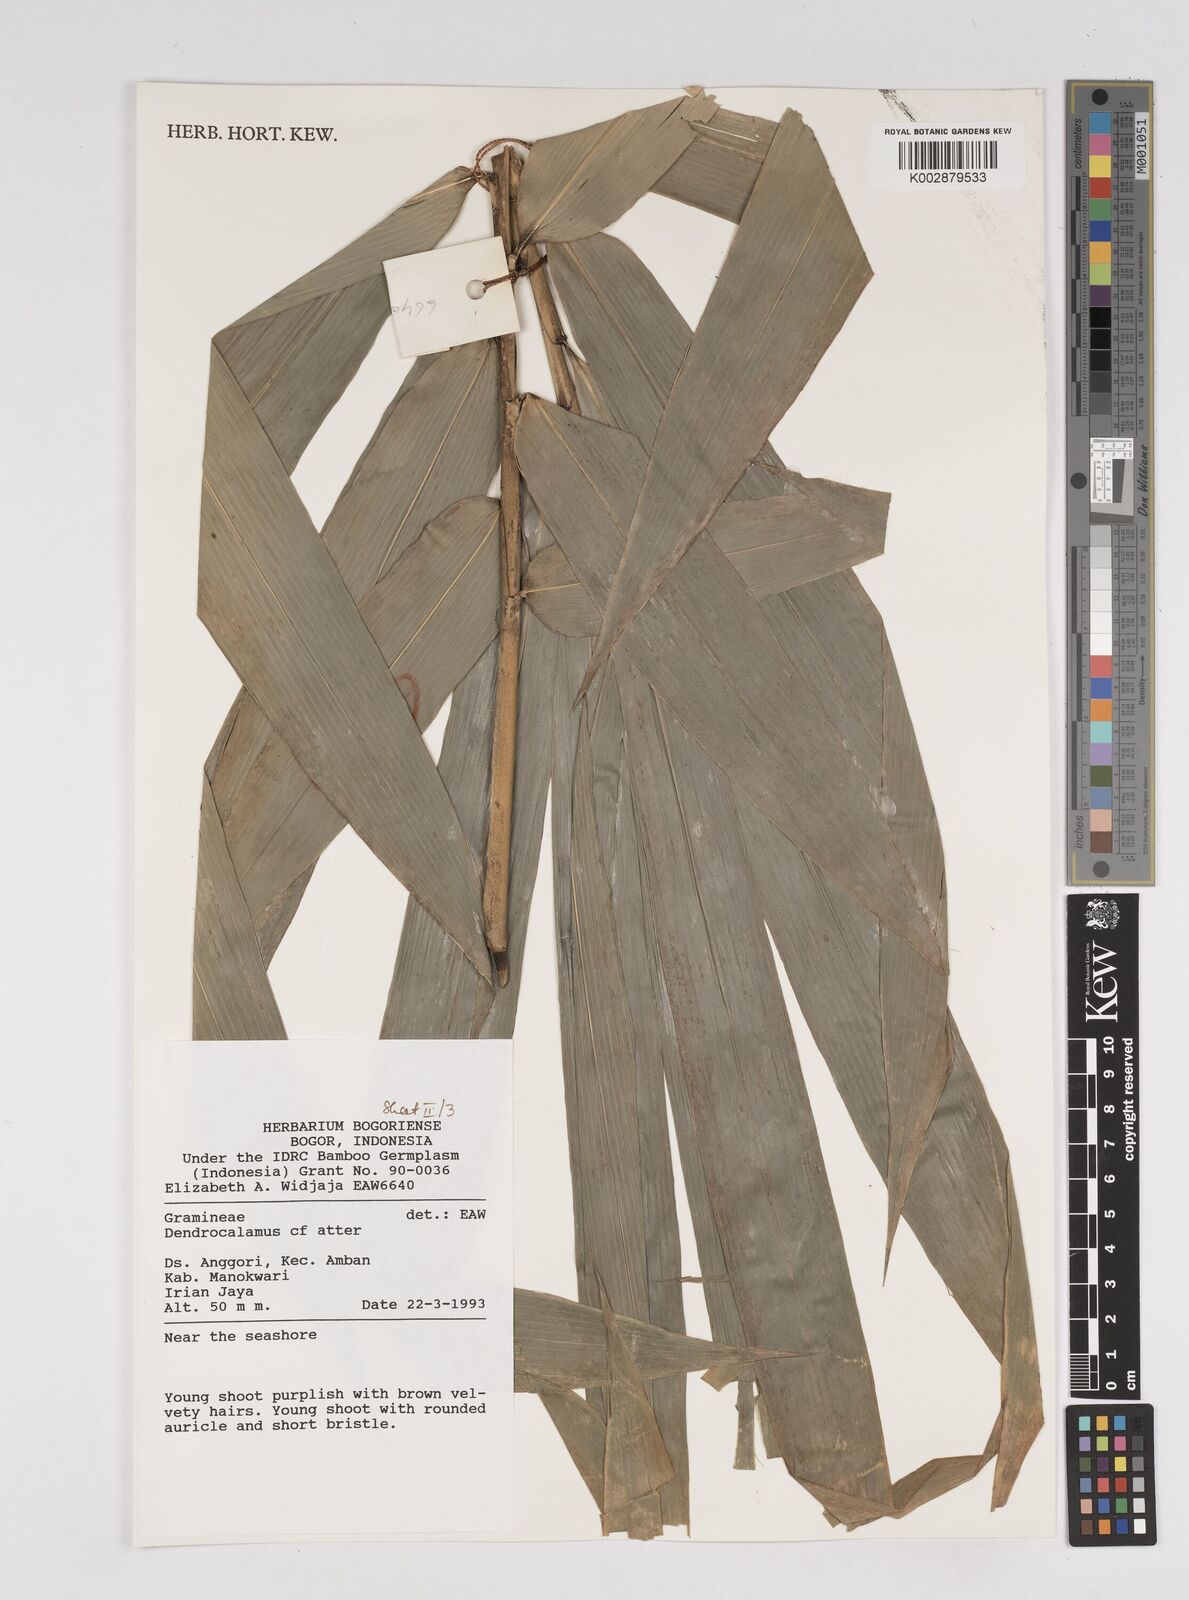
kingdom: Plantae
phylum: Tracheophyta
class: Liliopsida
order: Poales
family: Poaceae
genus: Dendrocalamus
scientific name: Dendrocalamus
